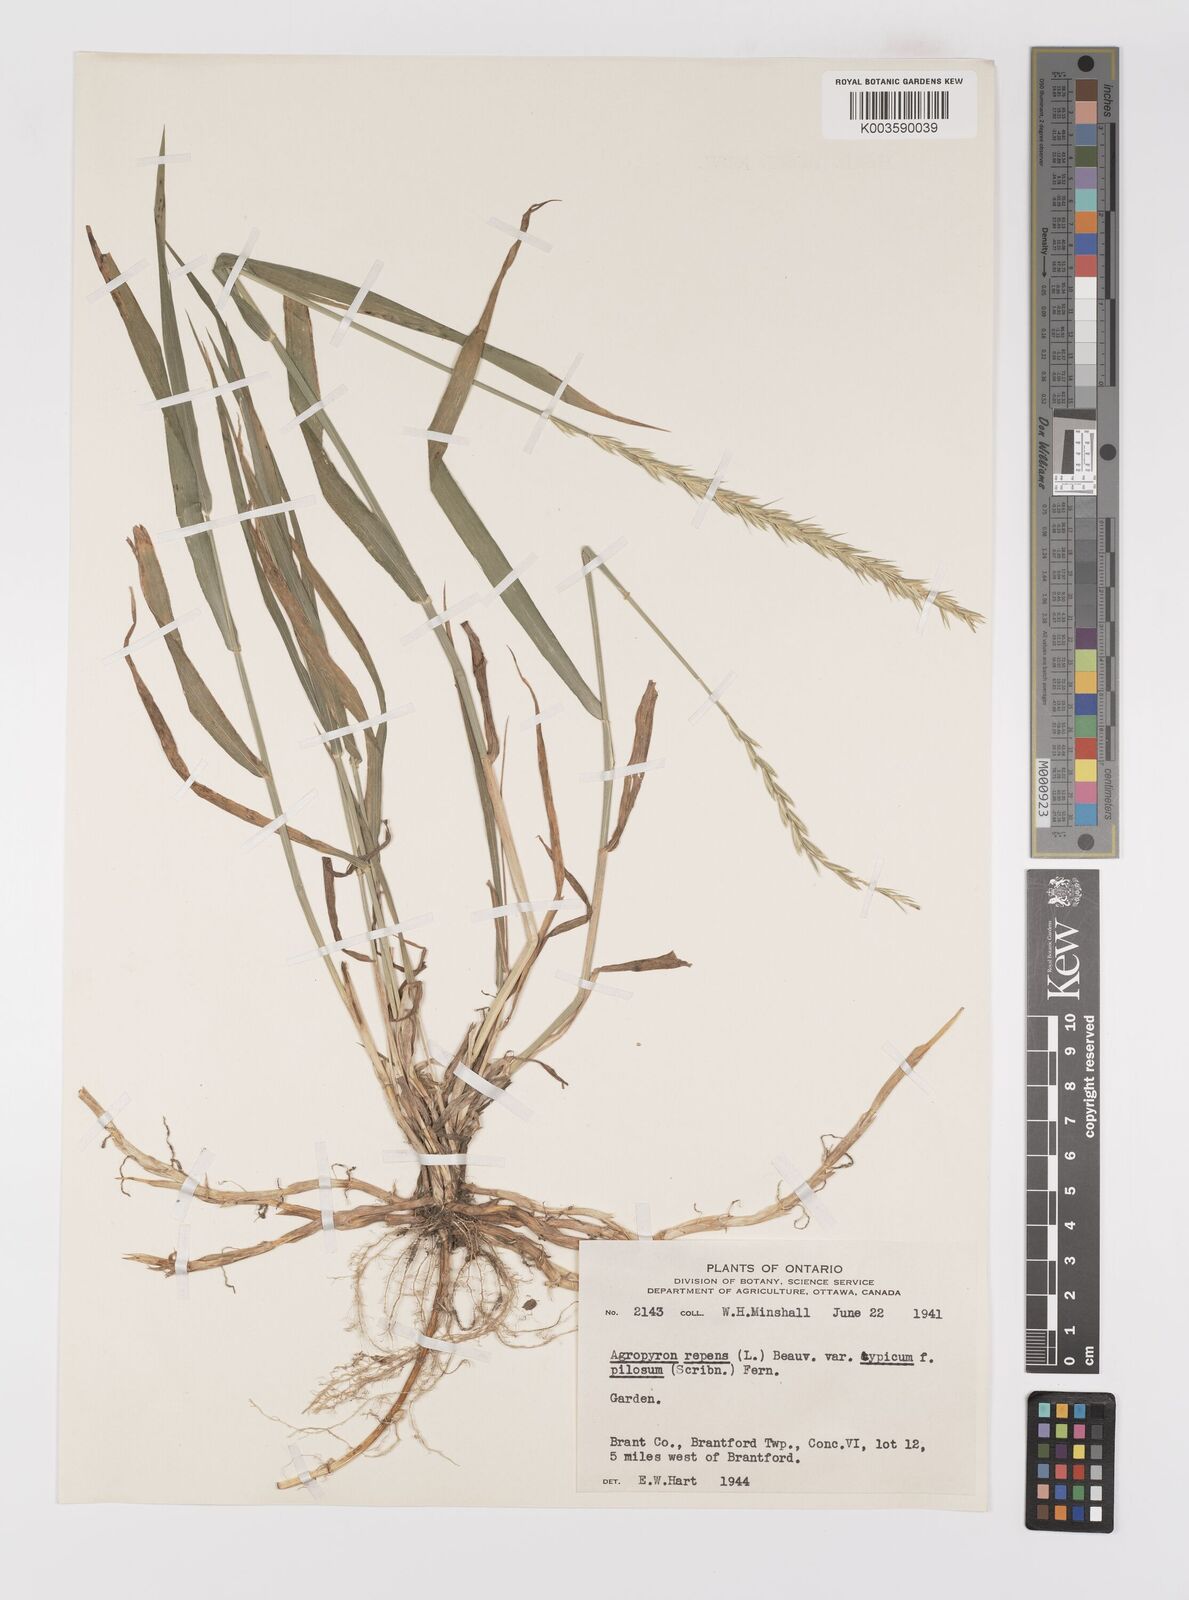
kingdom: Plantae
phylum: Tracheophyta
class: Liliopsida
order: Poales
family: Poaceae
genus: Elymus
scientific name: Elymus repens
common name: Quackgrass
